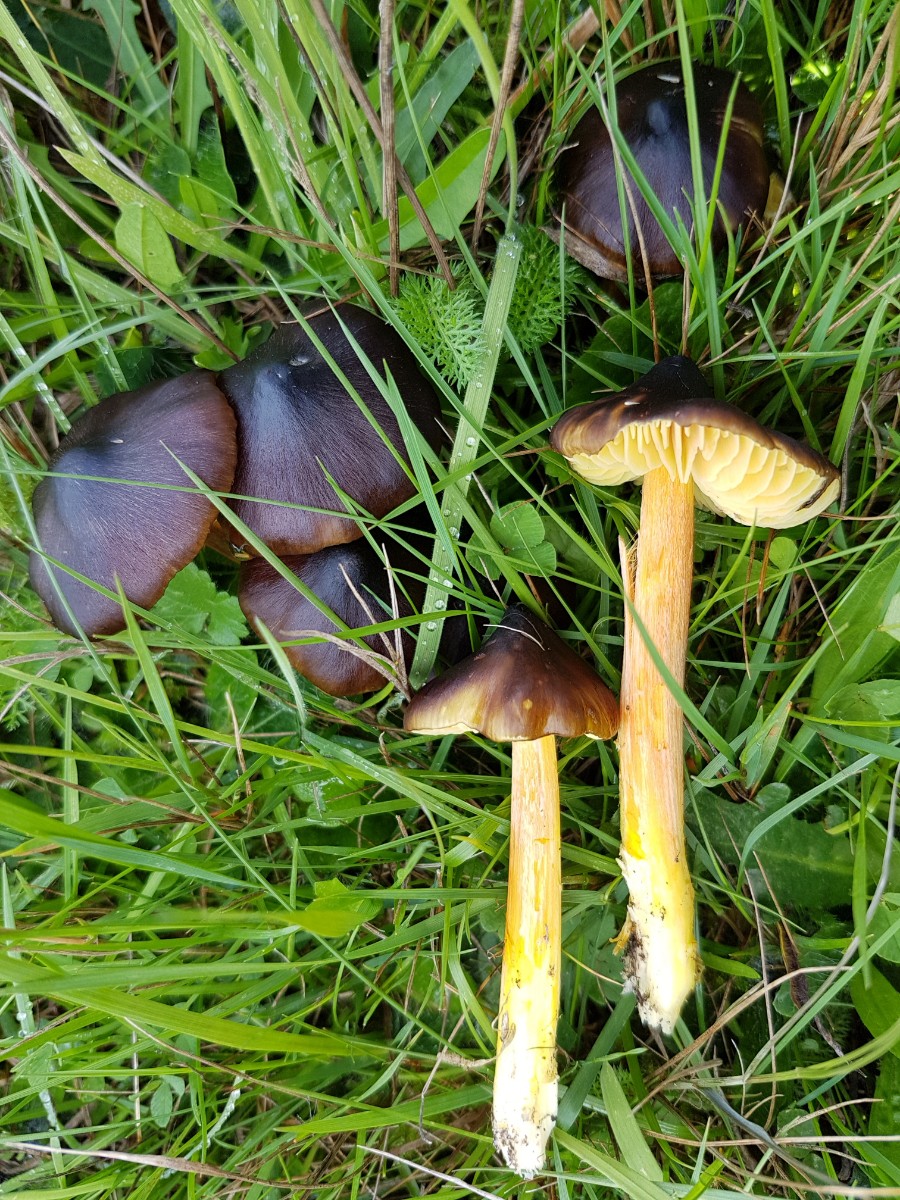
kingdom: Fungi
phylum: Basidiomycota
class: Agaricomycetes
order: Agaricales
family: Hygrophoraceae
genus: Hygrocybe
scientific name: Hygrocybe spadicea
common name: daddelbrun vokshat
